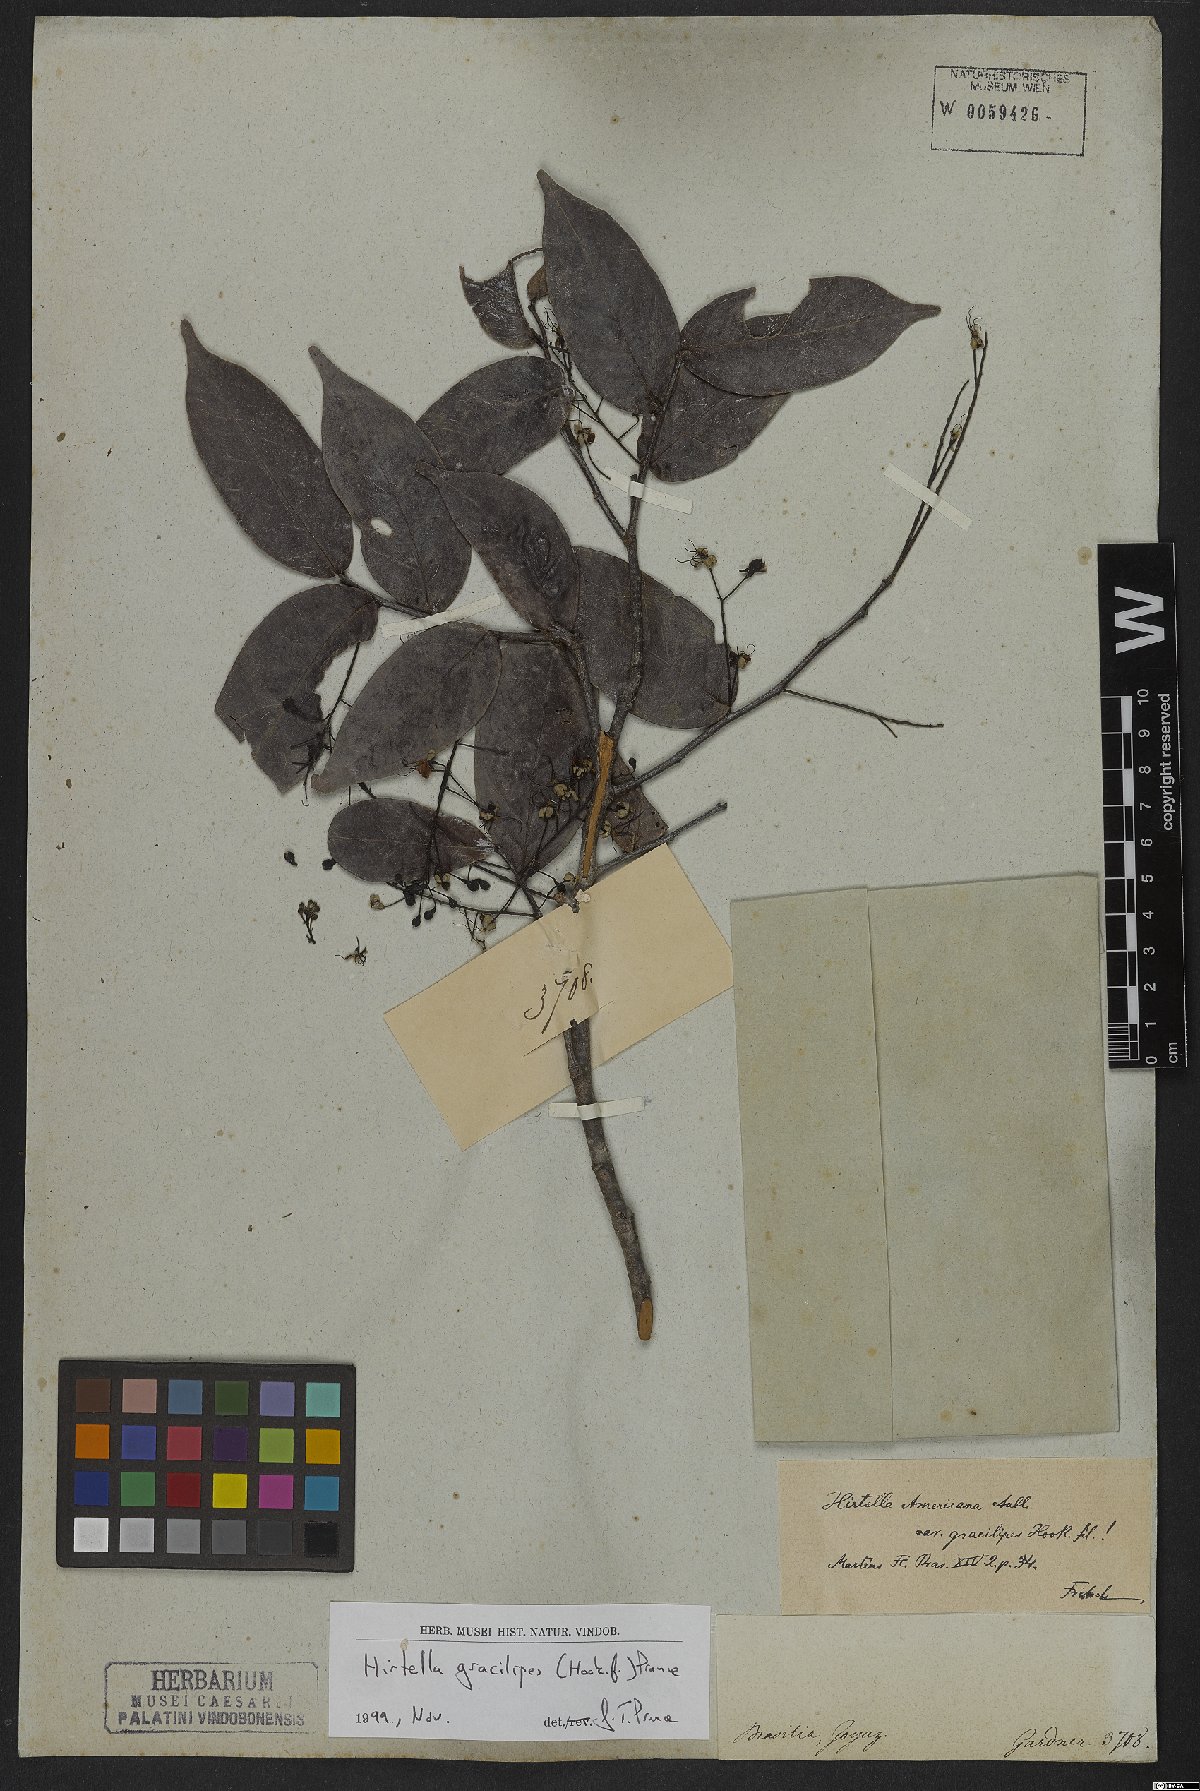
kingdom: Plantae
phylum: Tracheophyta
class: Magnoliopsida
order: Malpighiales
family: Chrysobalanaceae
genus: Hirtella
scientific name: Hirtella gracilipes
